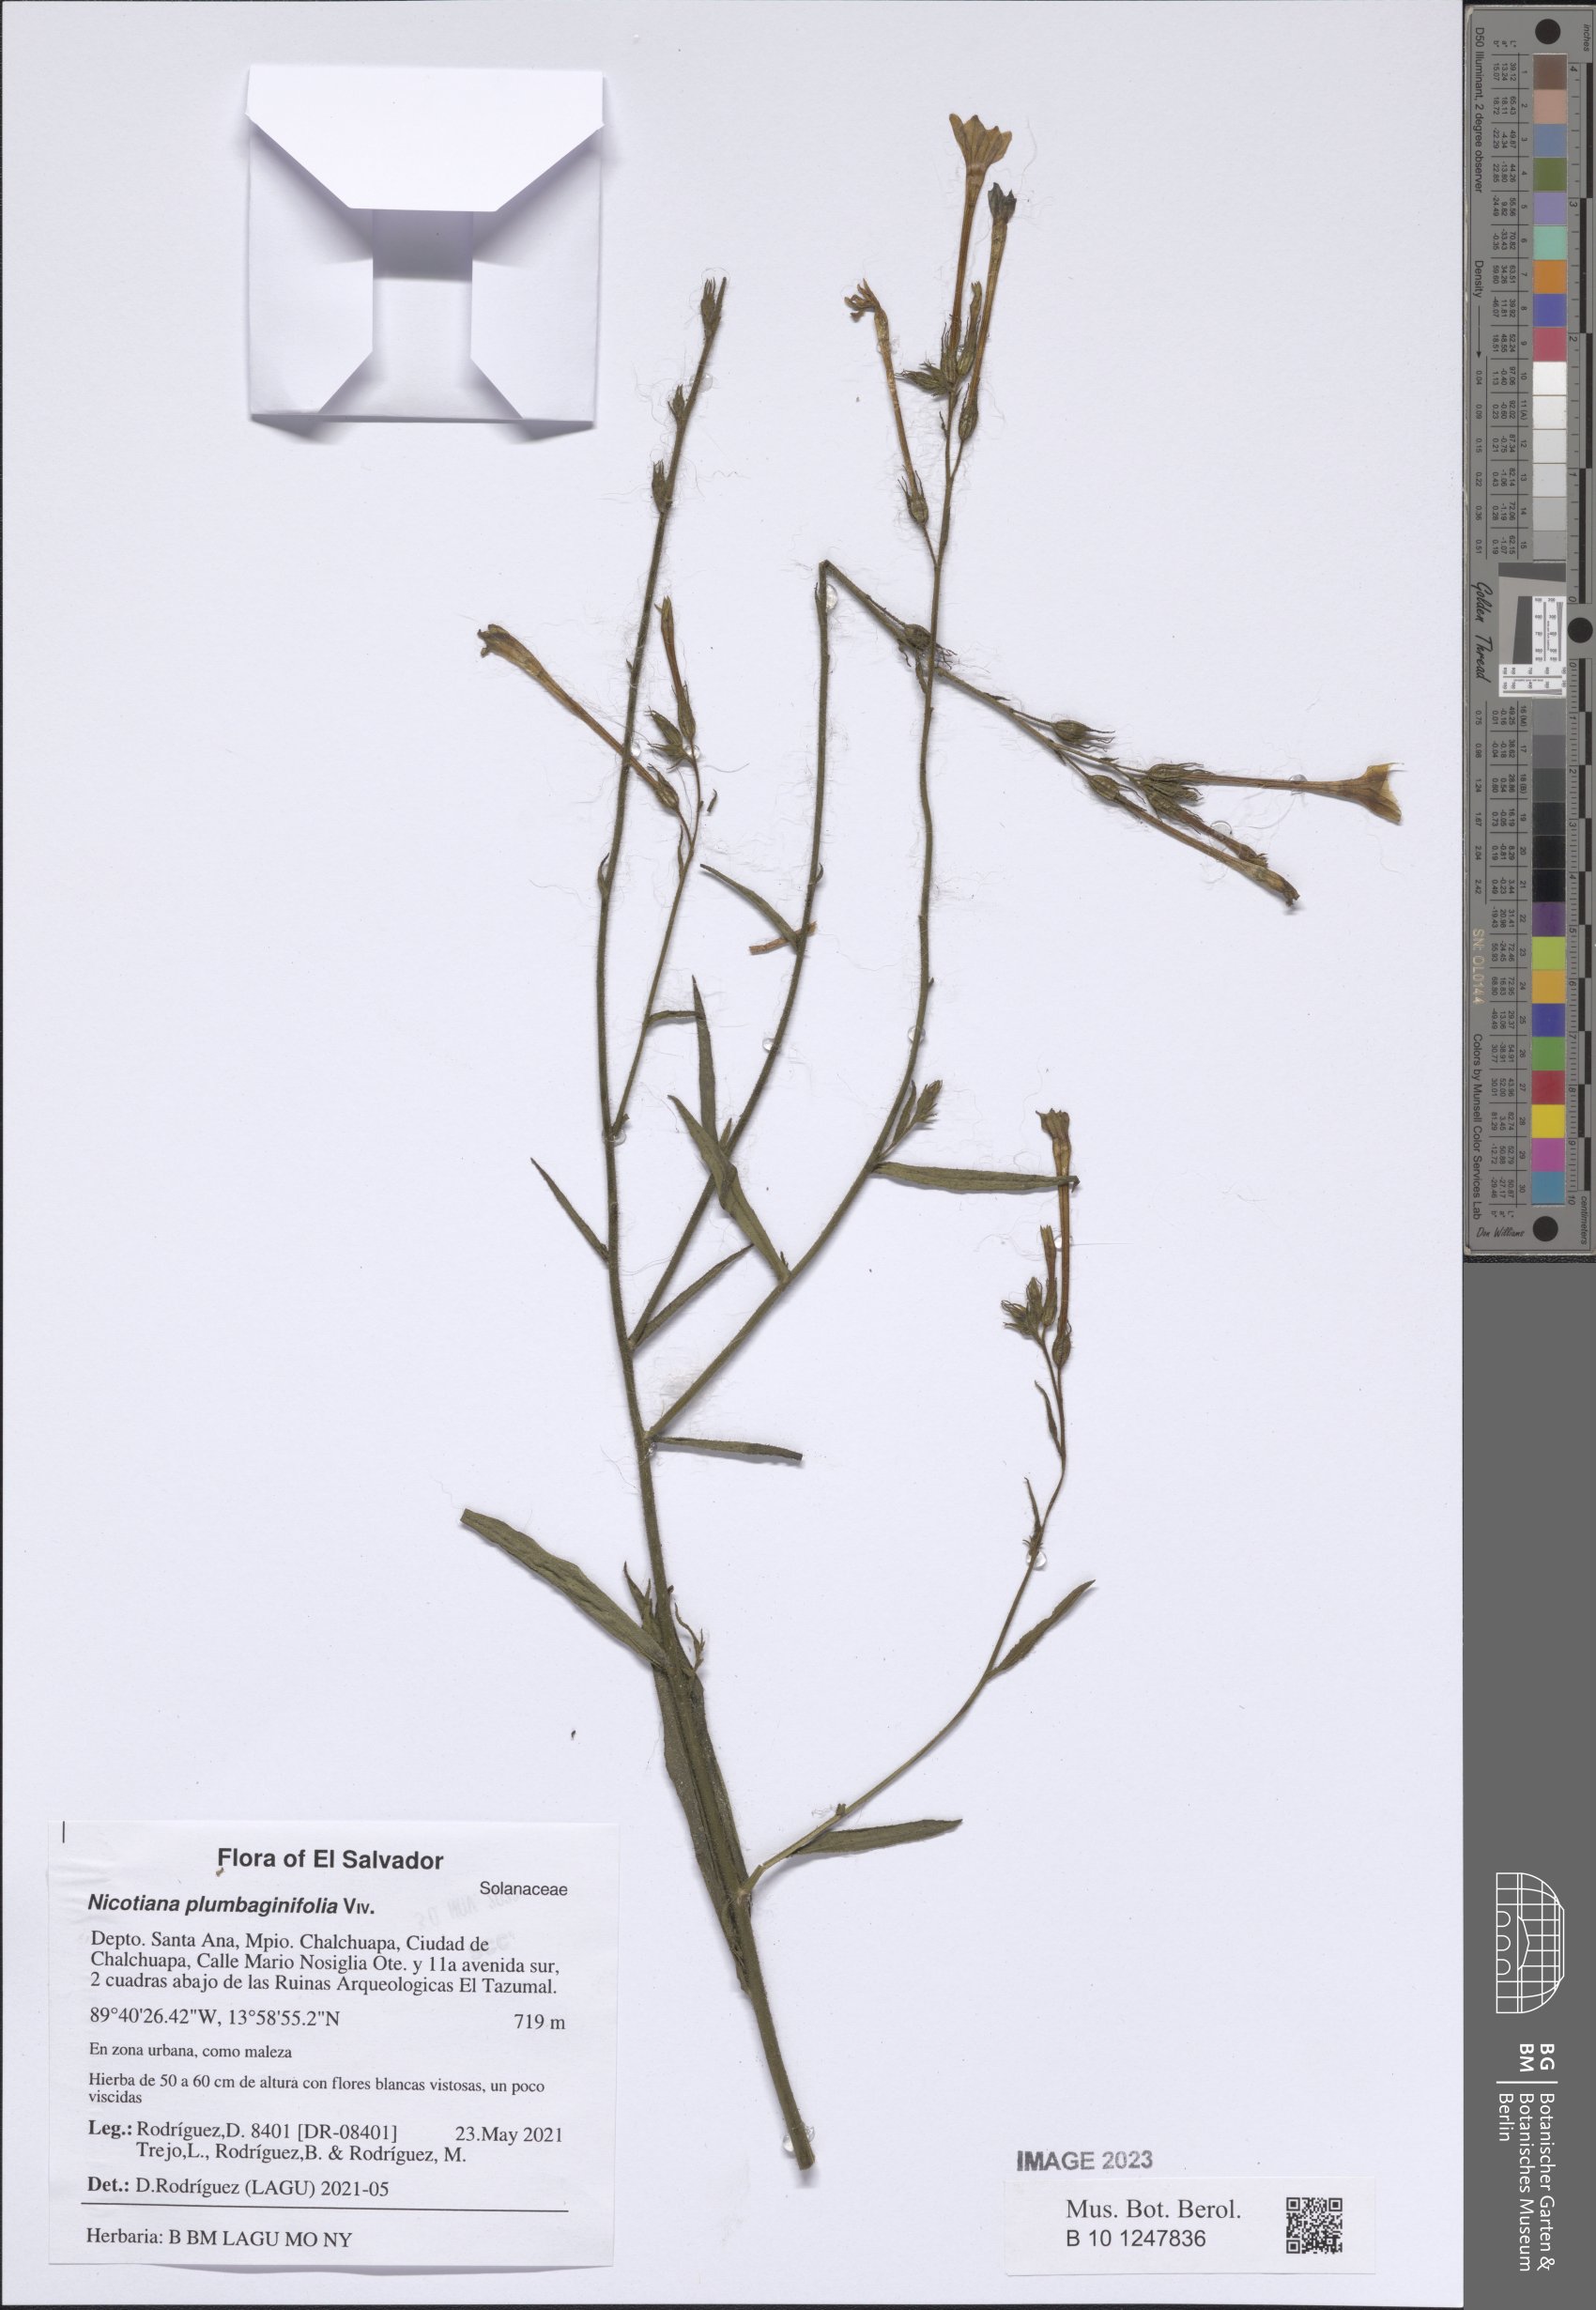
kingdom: Plantae
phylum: Tracheophyta
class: Magnoliopsida
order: Solanales
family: Solanaceae
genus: Nicotiana
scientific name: Nicotiana plumbaginifolia
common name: Tex-mex tobacco
